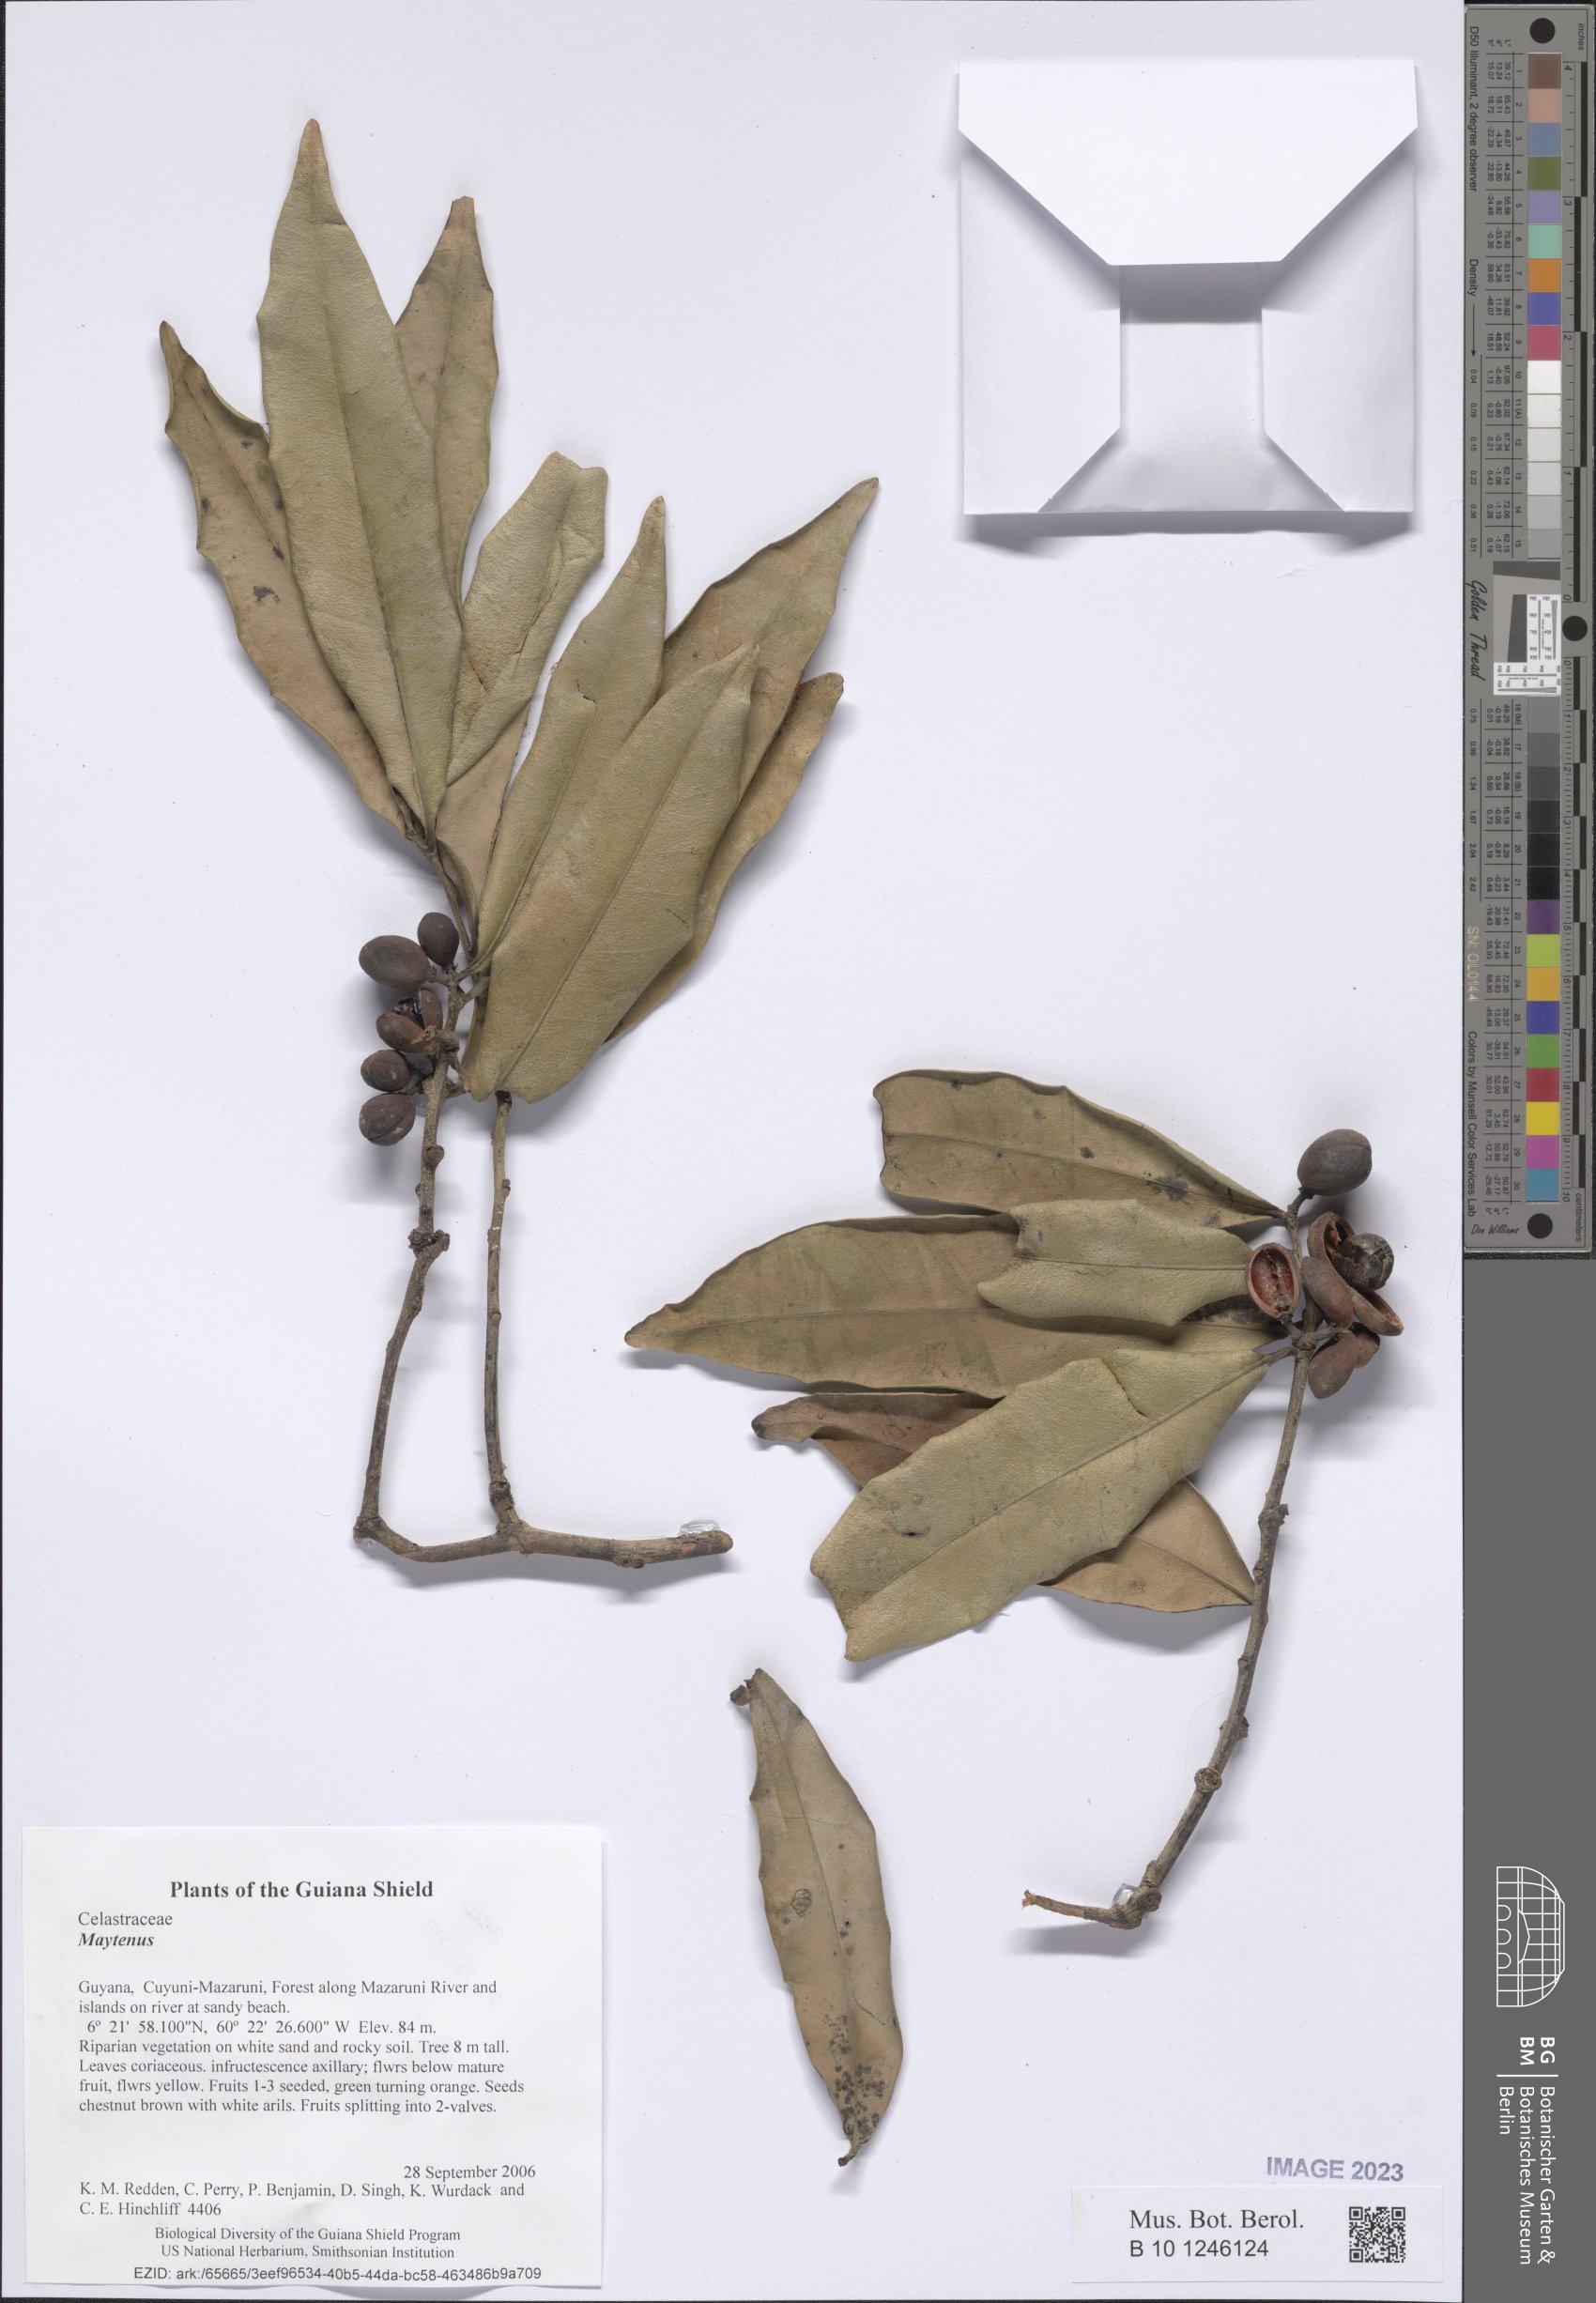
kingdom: Plantae
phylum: Tracheophyta
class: Magnoliopsida
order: Celastrales
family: Celastraceae
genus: Maytenus
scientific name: Maytenus
